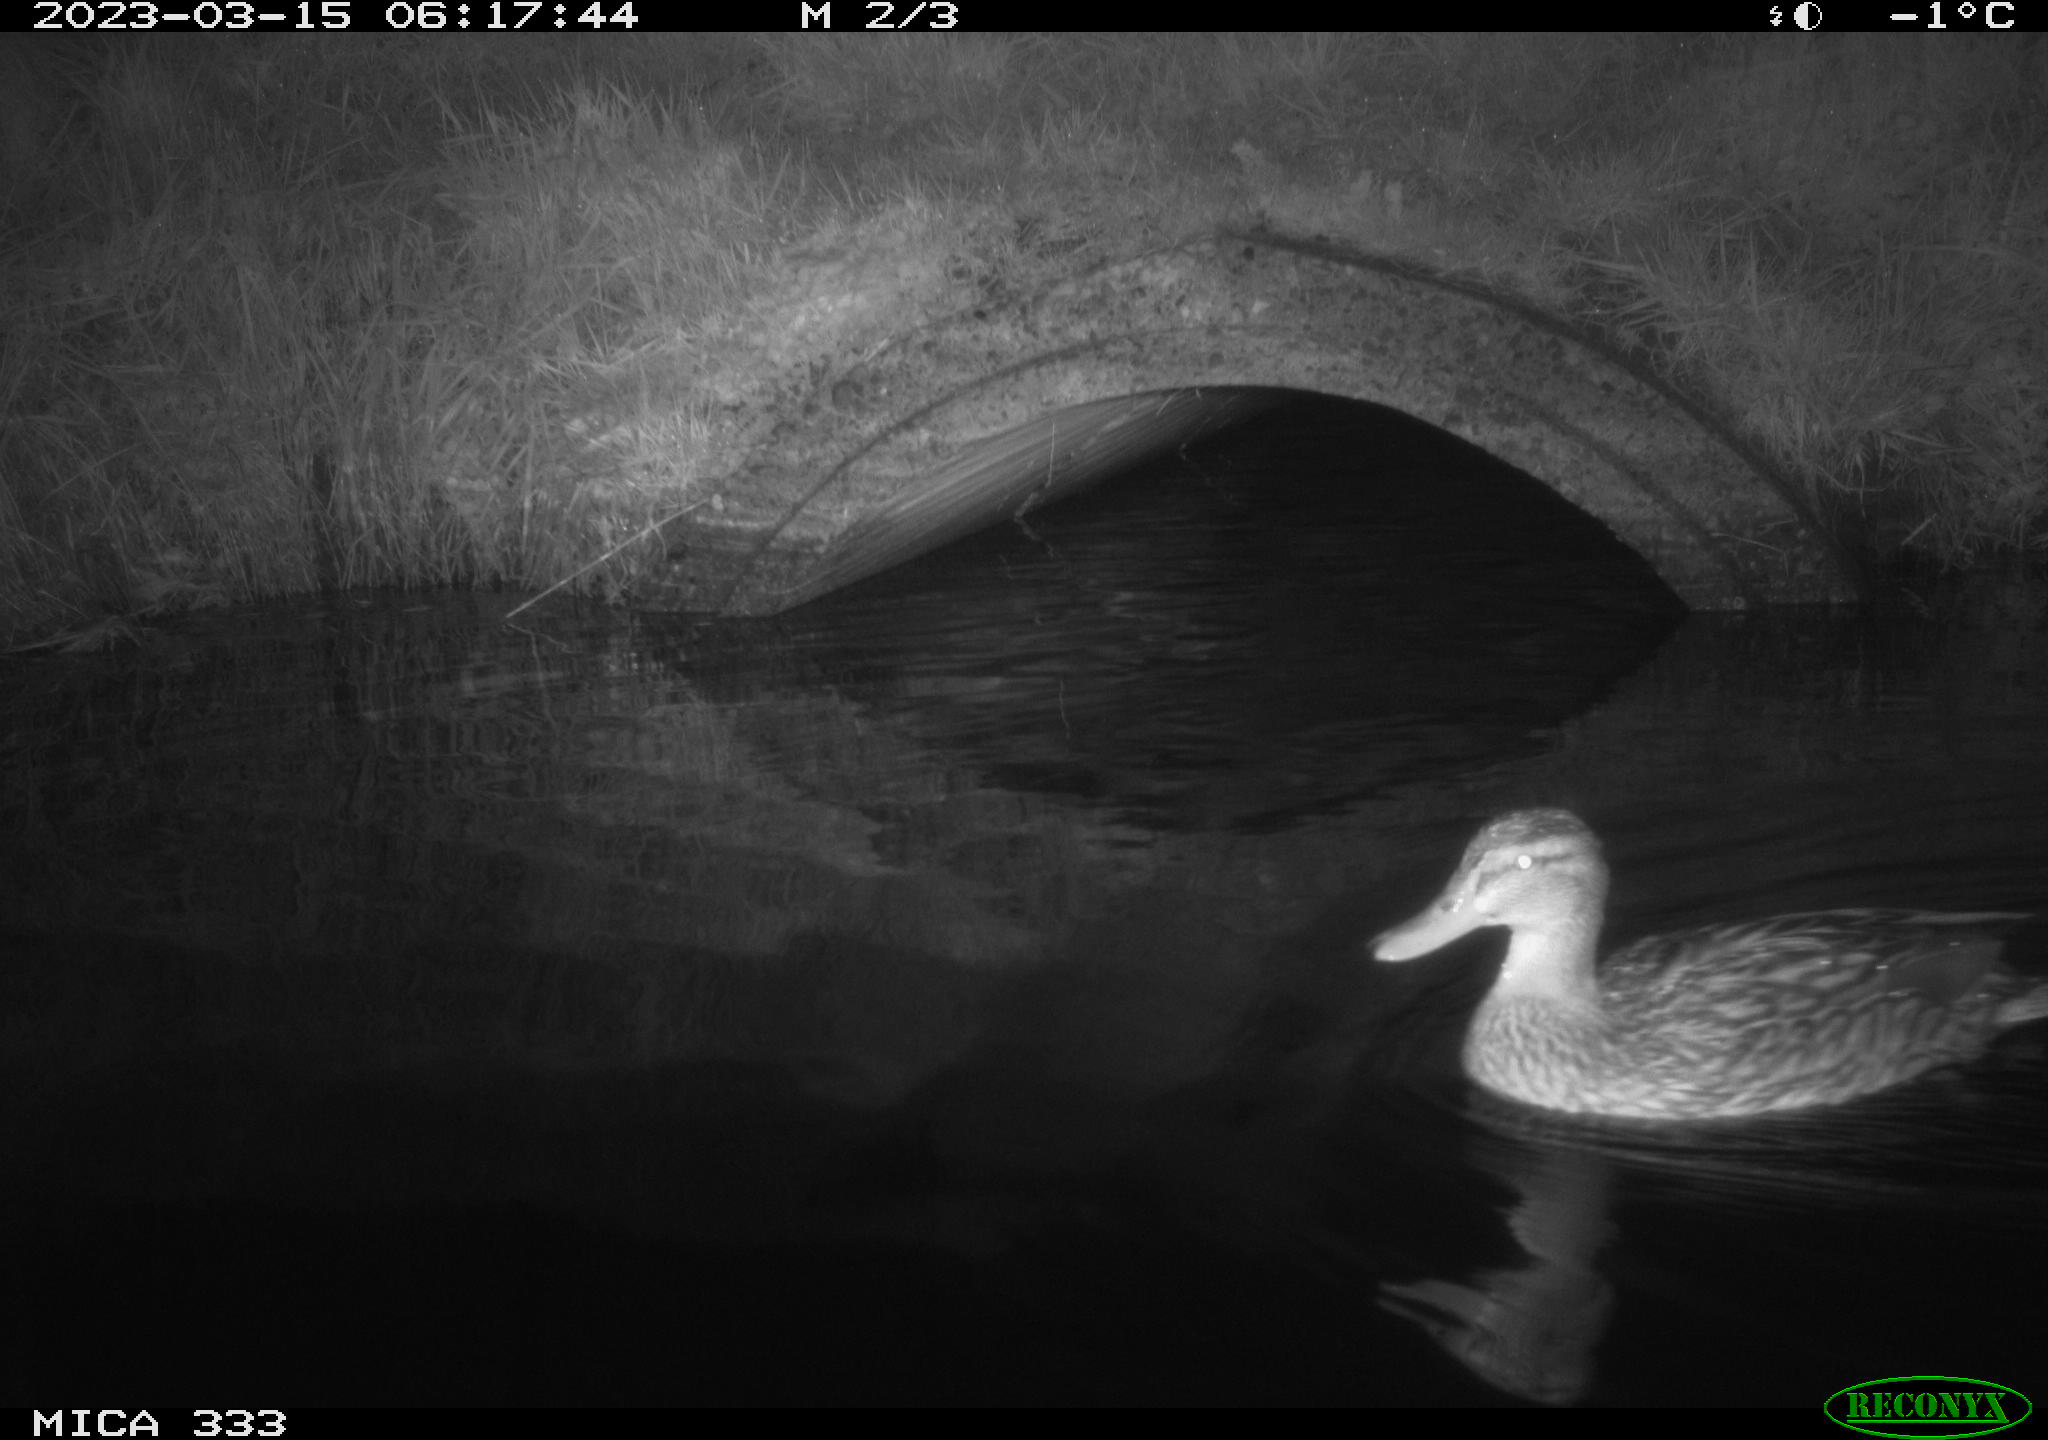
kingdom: Animalia
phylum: Chordata
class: Aves
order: Anseriformes
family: Anatidae
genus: Anas
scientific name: Anas
